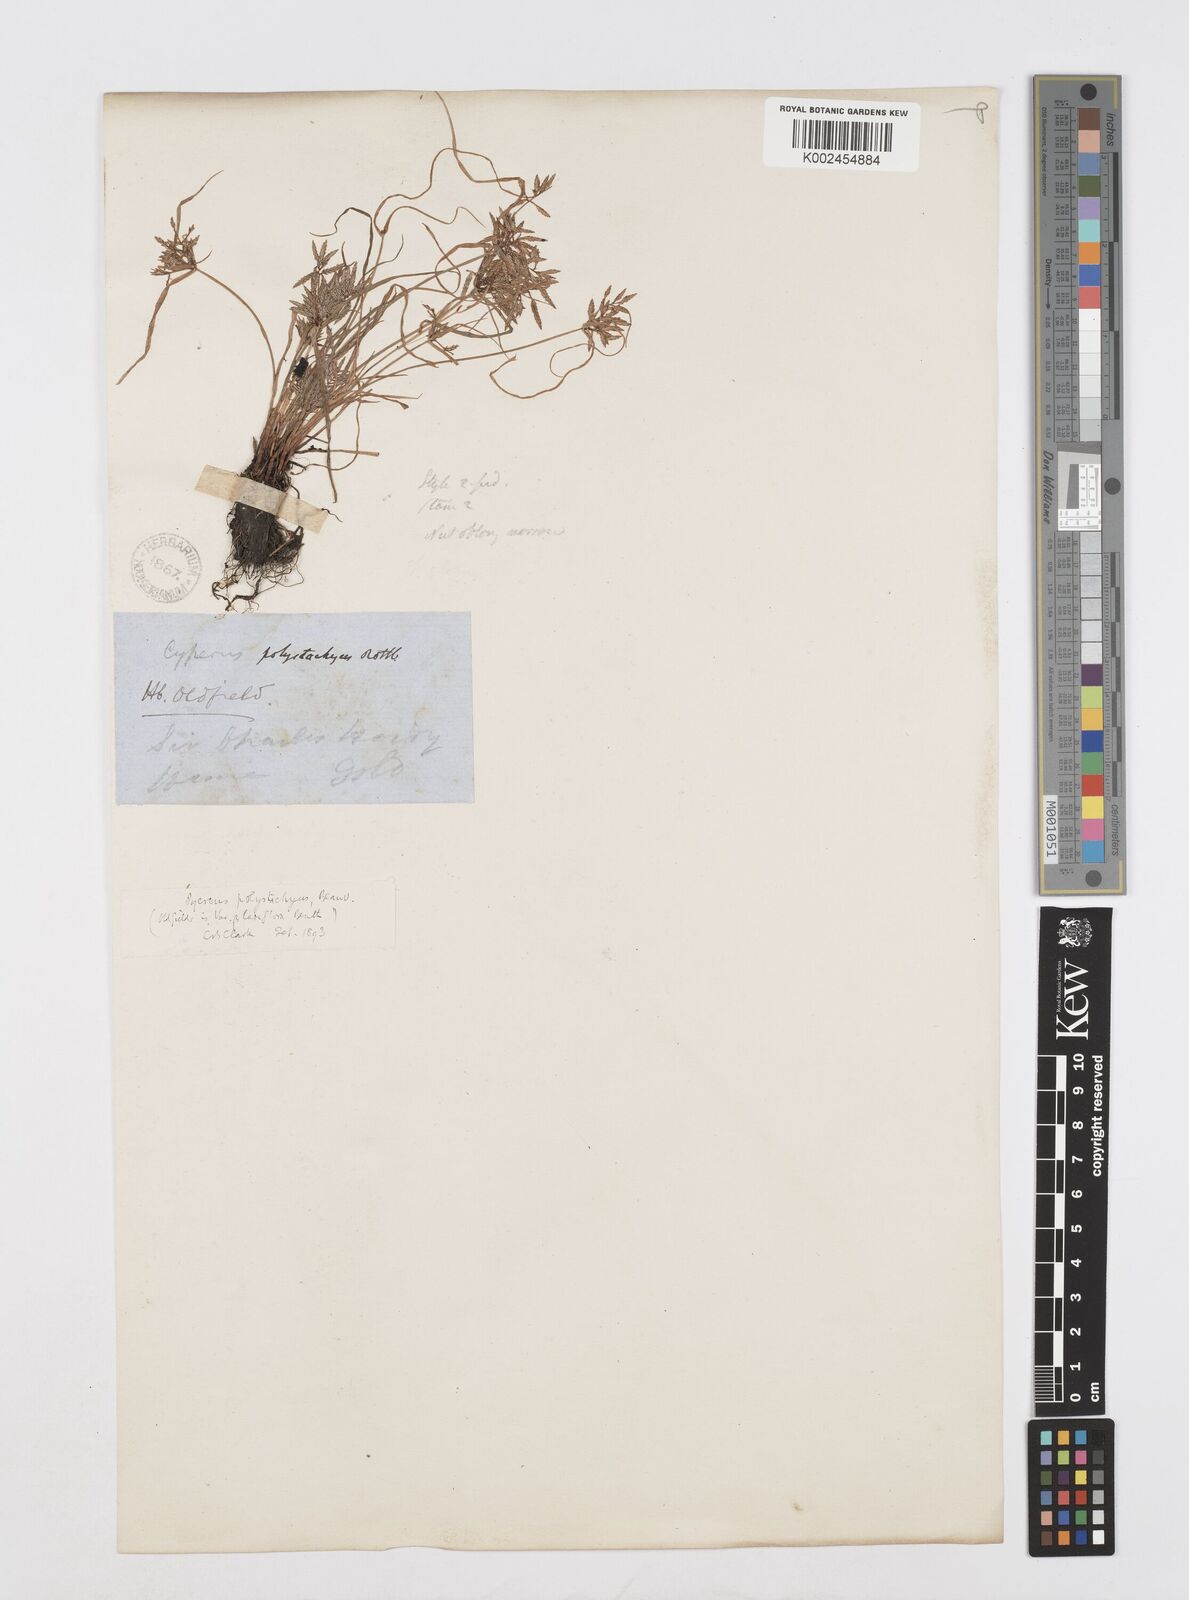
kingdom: Plantae
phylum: Tracheophyta
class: Liliopsida
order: Poales
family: Cyperaceae
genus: Cyperus
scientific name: Cyperus polystachyos
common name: Bunchy flat sedge
